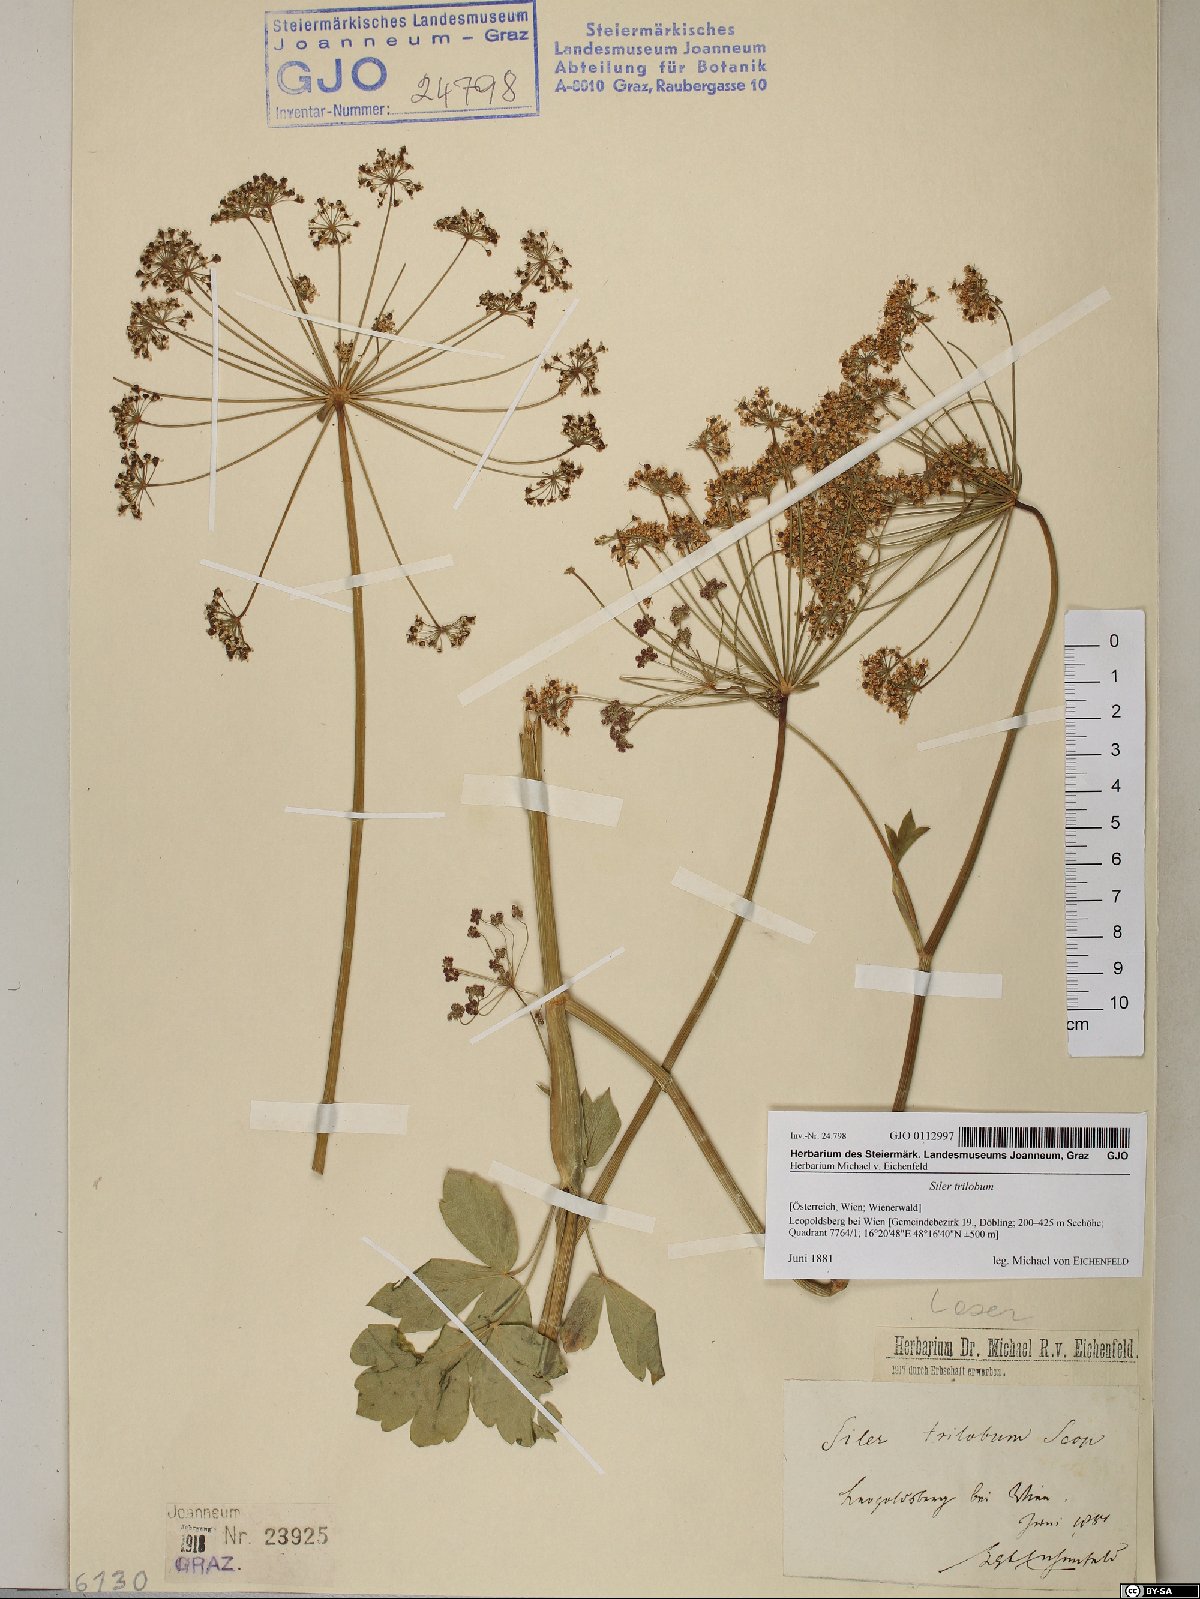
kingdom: Plantae
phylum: Tracheophyta
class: Magnoliopsida
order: Apiales
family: Apiaceae
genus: Laser
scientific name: Laser trilobum
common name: Laser
